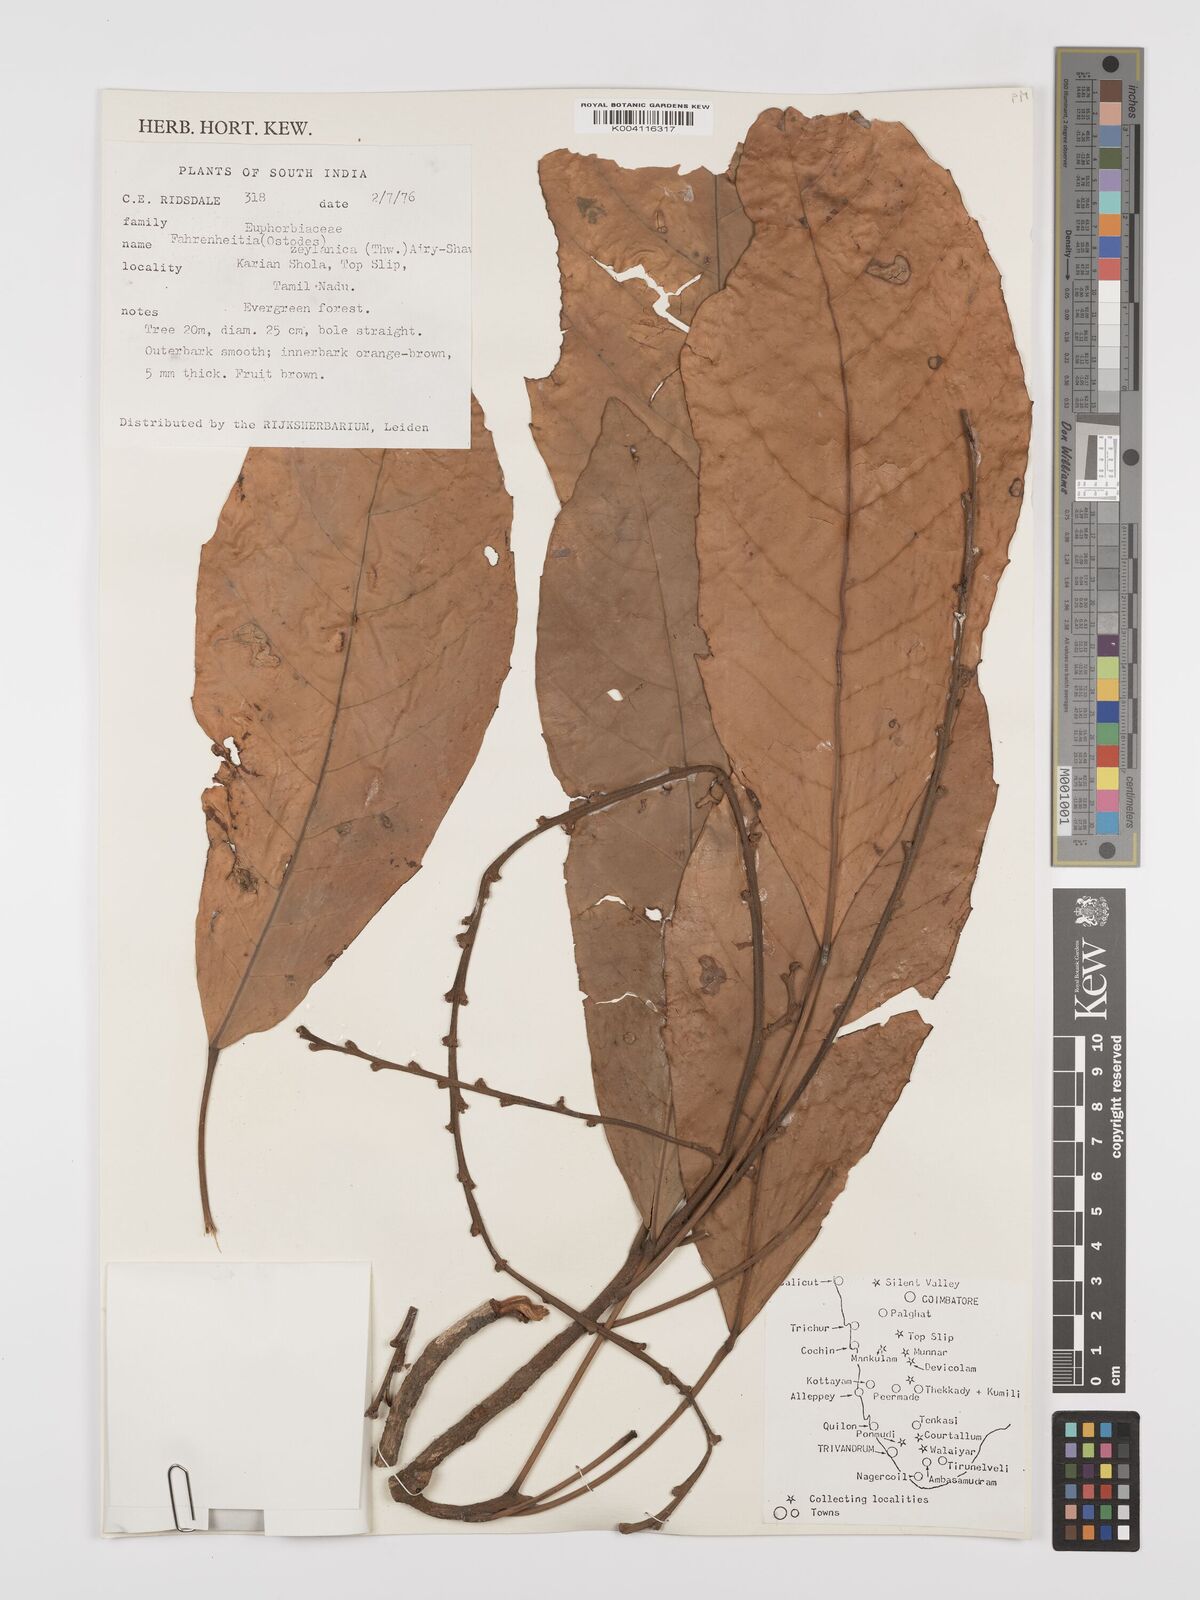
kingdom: Plantae
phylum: Tracheophyta
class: Magnoliopsida
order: Malpighiales
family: Euphorbiaceae
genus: Paracroton
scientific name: Paracroton zeylanicus
